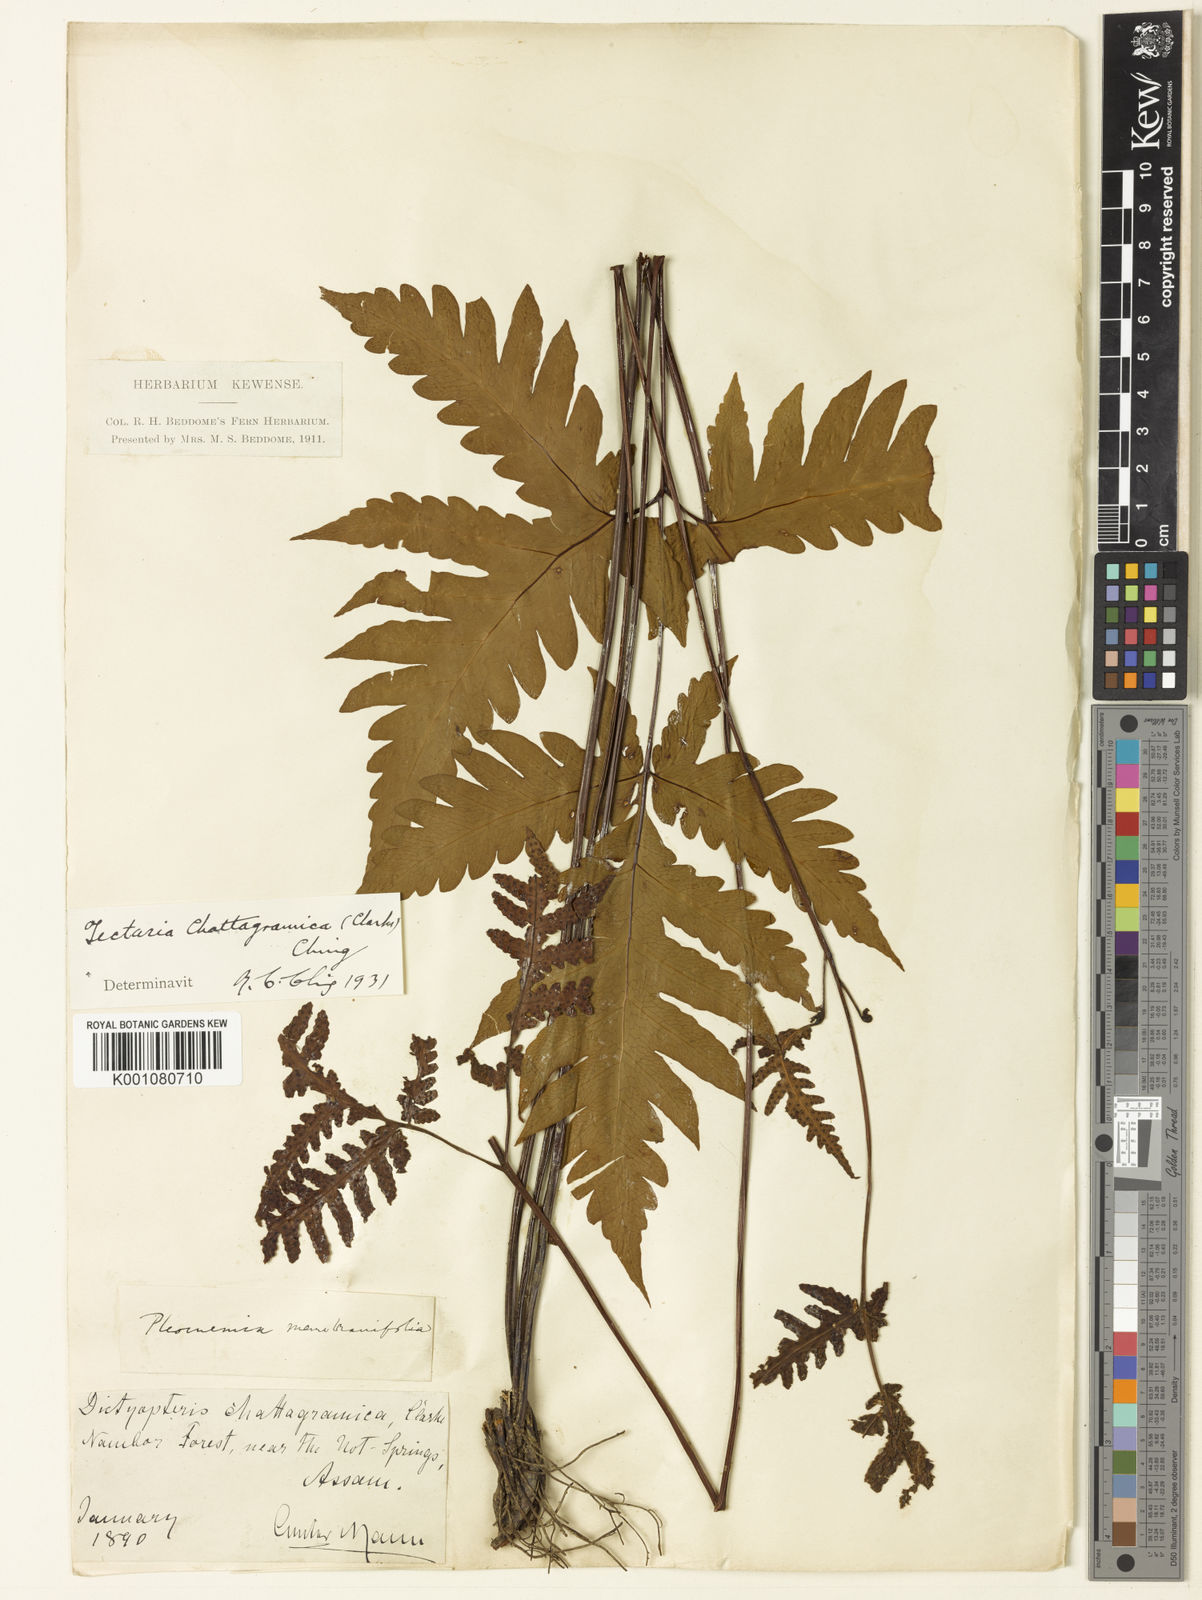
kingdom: Plantae
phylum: Tracheophyta
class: Polypodiopsida
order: Polypodiales
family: Tectariaceae
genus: Tectaria
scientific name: Tectaria chattagrammica
